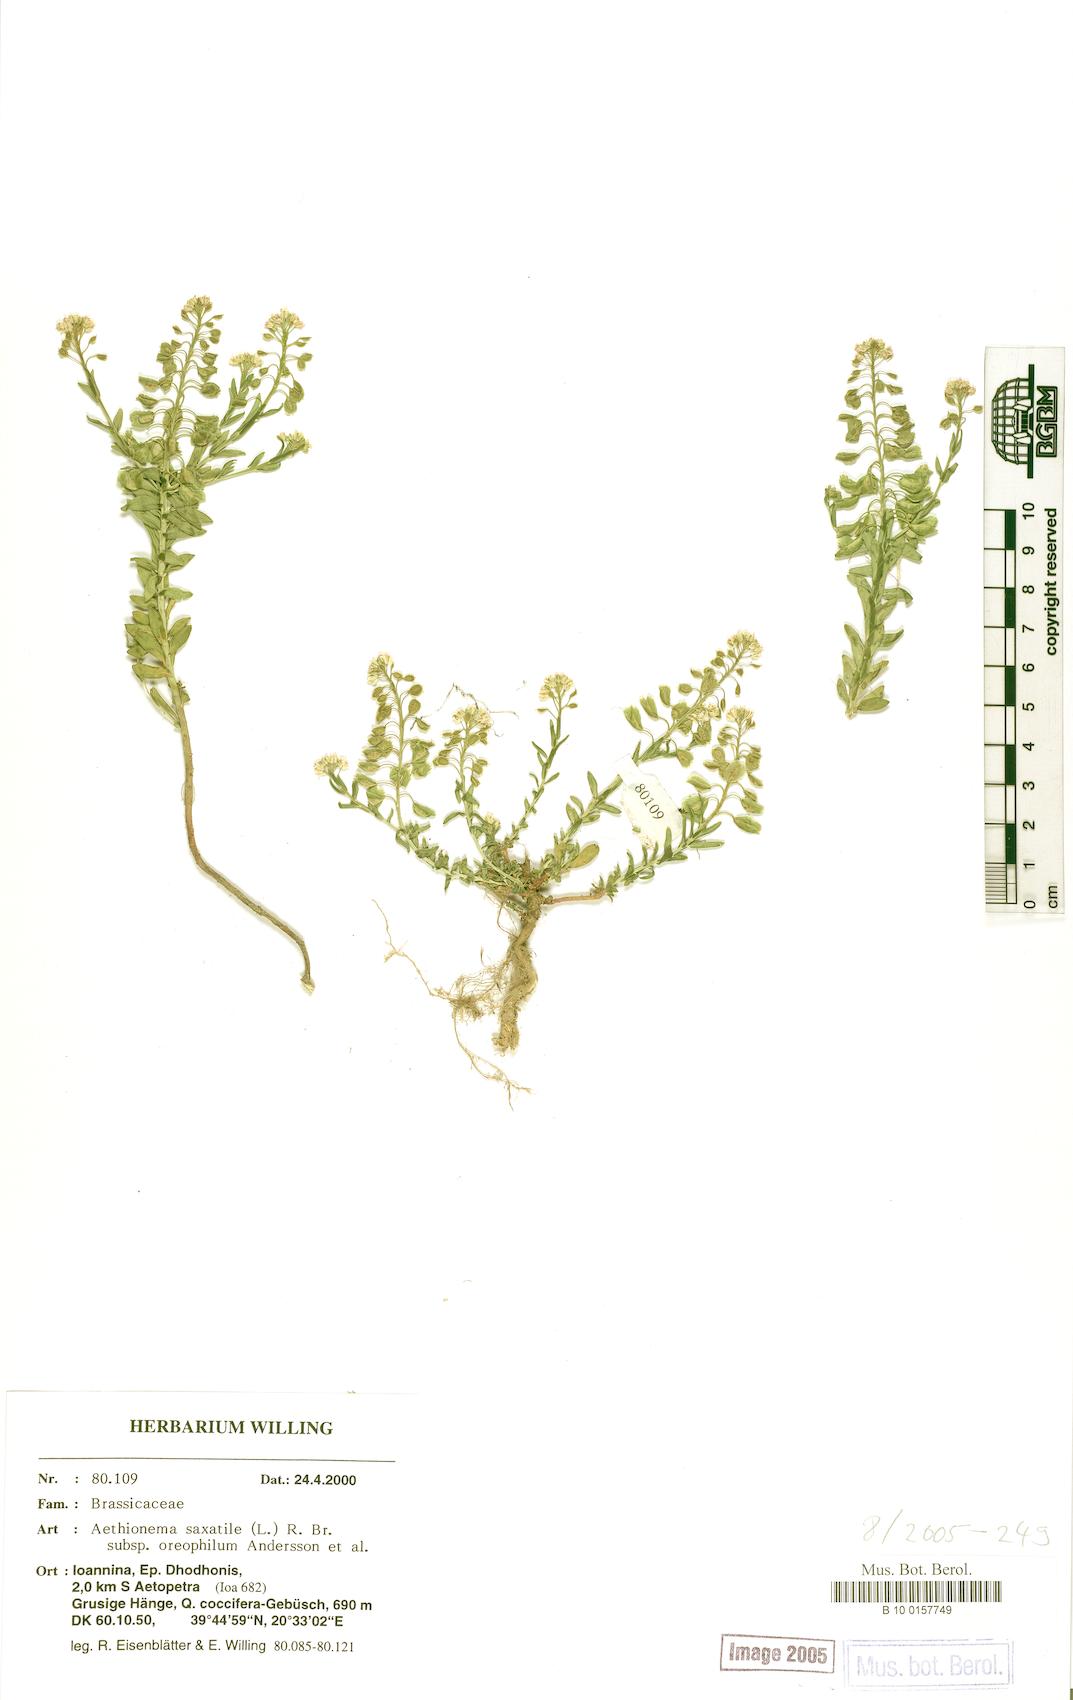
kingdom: Plantae
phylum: Tracheophyta
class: Magnoliopsida
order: Brassicales
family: Brassicaceae
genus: Aethionema
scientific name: Aethionema saxatile
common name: Burnt candytuft
